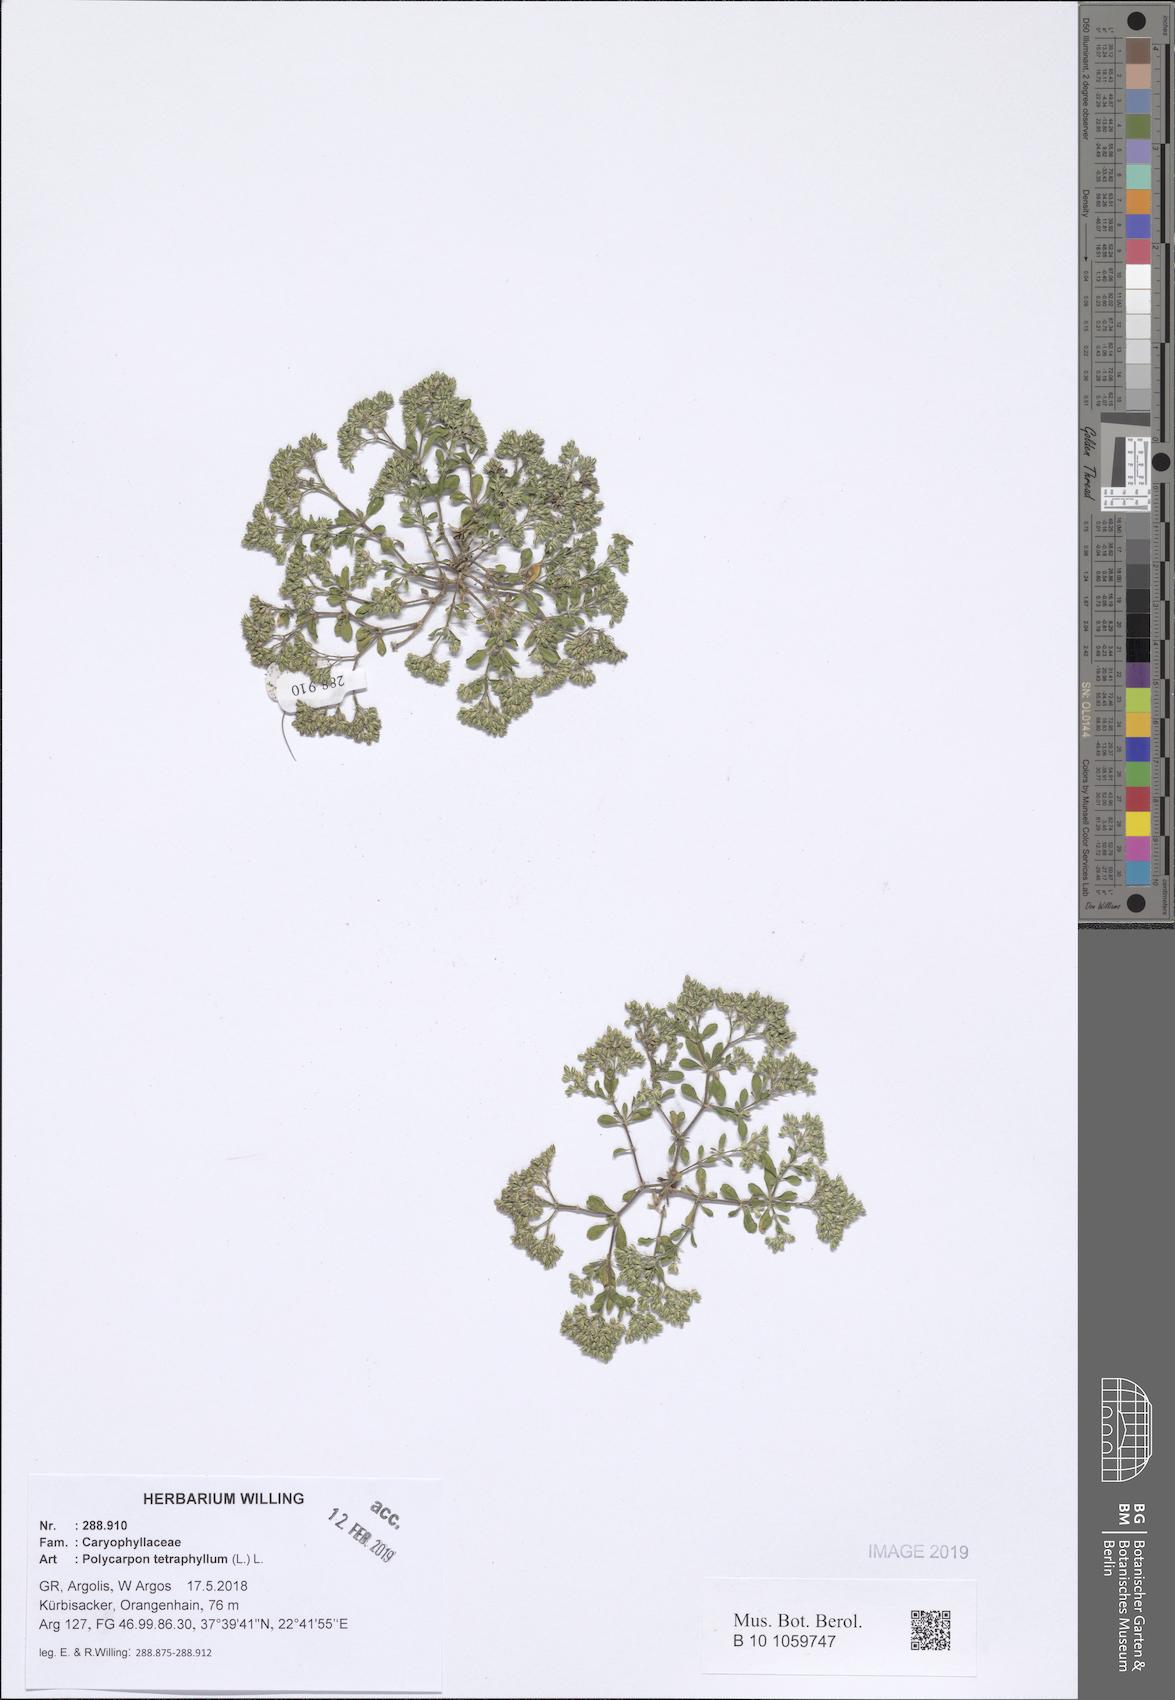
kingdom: Plantae
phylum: Tracheophyta
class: Magnoliopsida
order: Caryophyllales
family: Caryophyllaceae
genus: Polycarpon
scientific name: Polycarpon tetraphyllum
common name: Four-leaved all-seed
